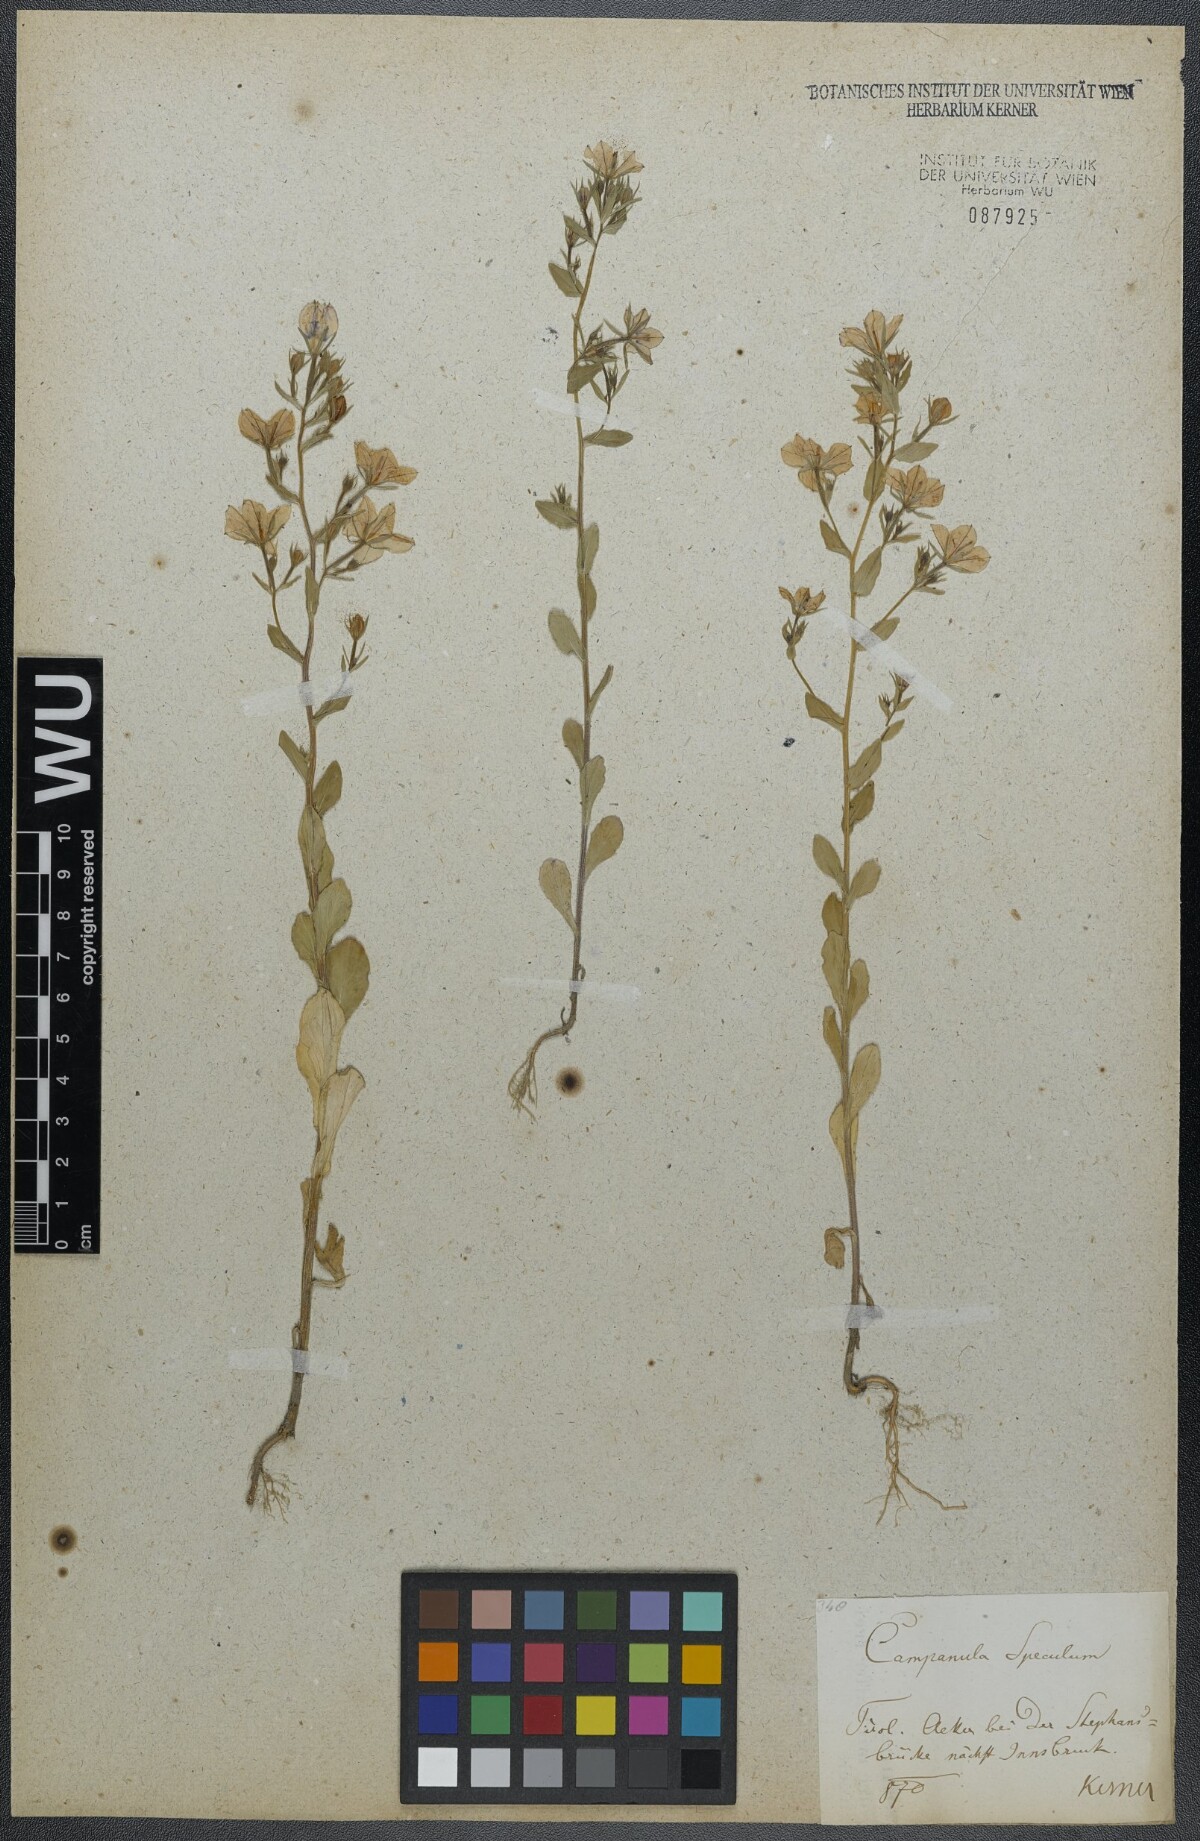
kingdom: Plantae
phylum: Tracheophyta
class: Magnoliopsida
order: Asterales
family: Campanulaceae
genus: Legousia
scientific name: Legousia speculum-veneris
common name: Large venus's-looking-glass
